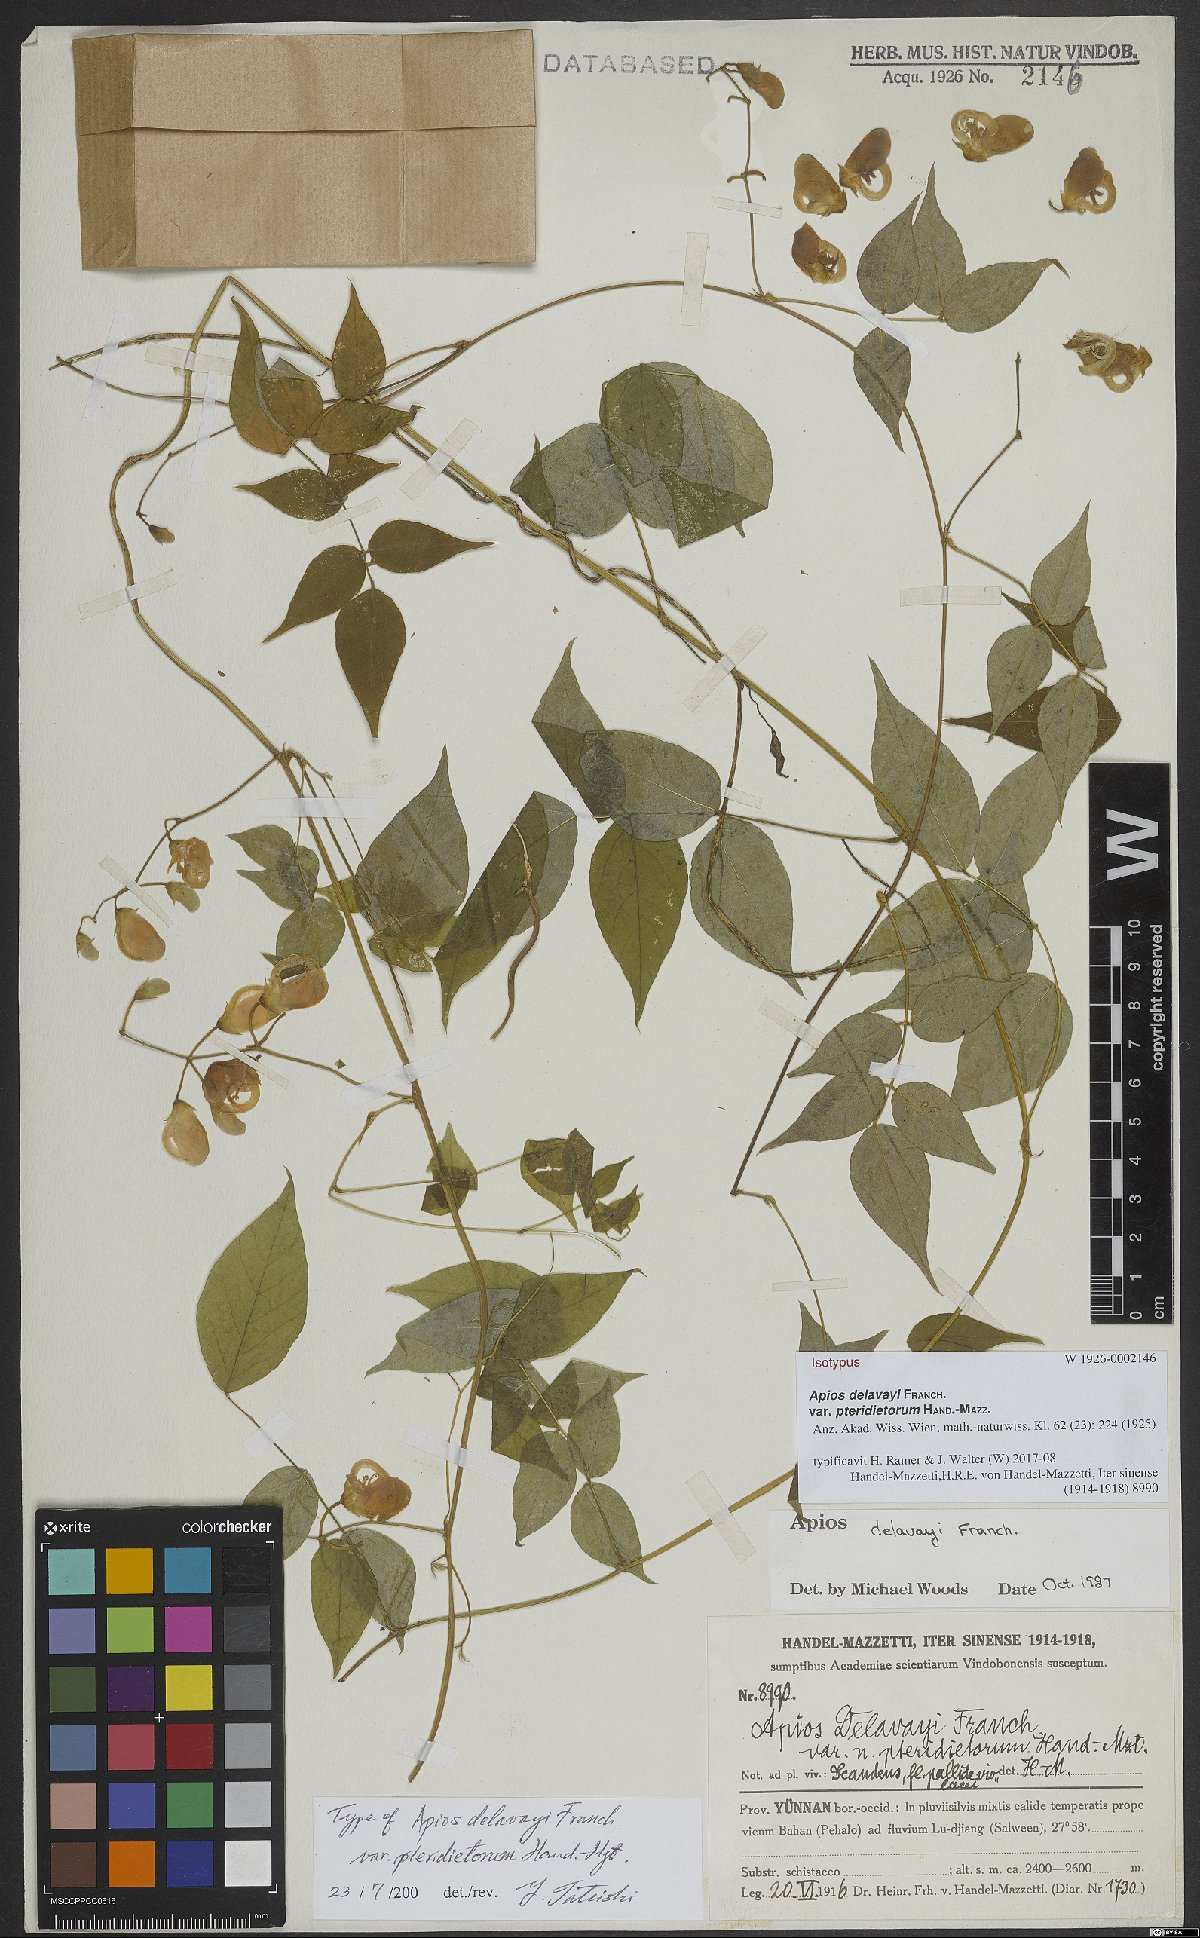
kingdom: Plantae
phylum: Tracheophyta
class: Magnoliopsida
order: Fabales
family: Fabaceae
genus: Apios
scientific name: Apios delavayi
